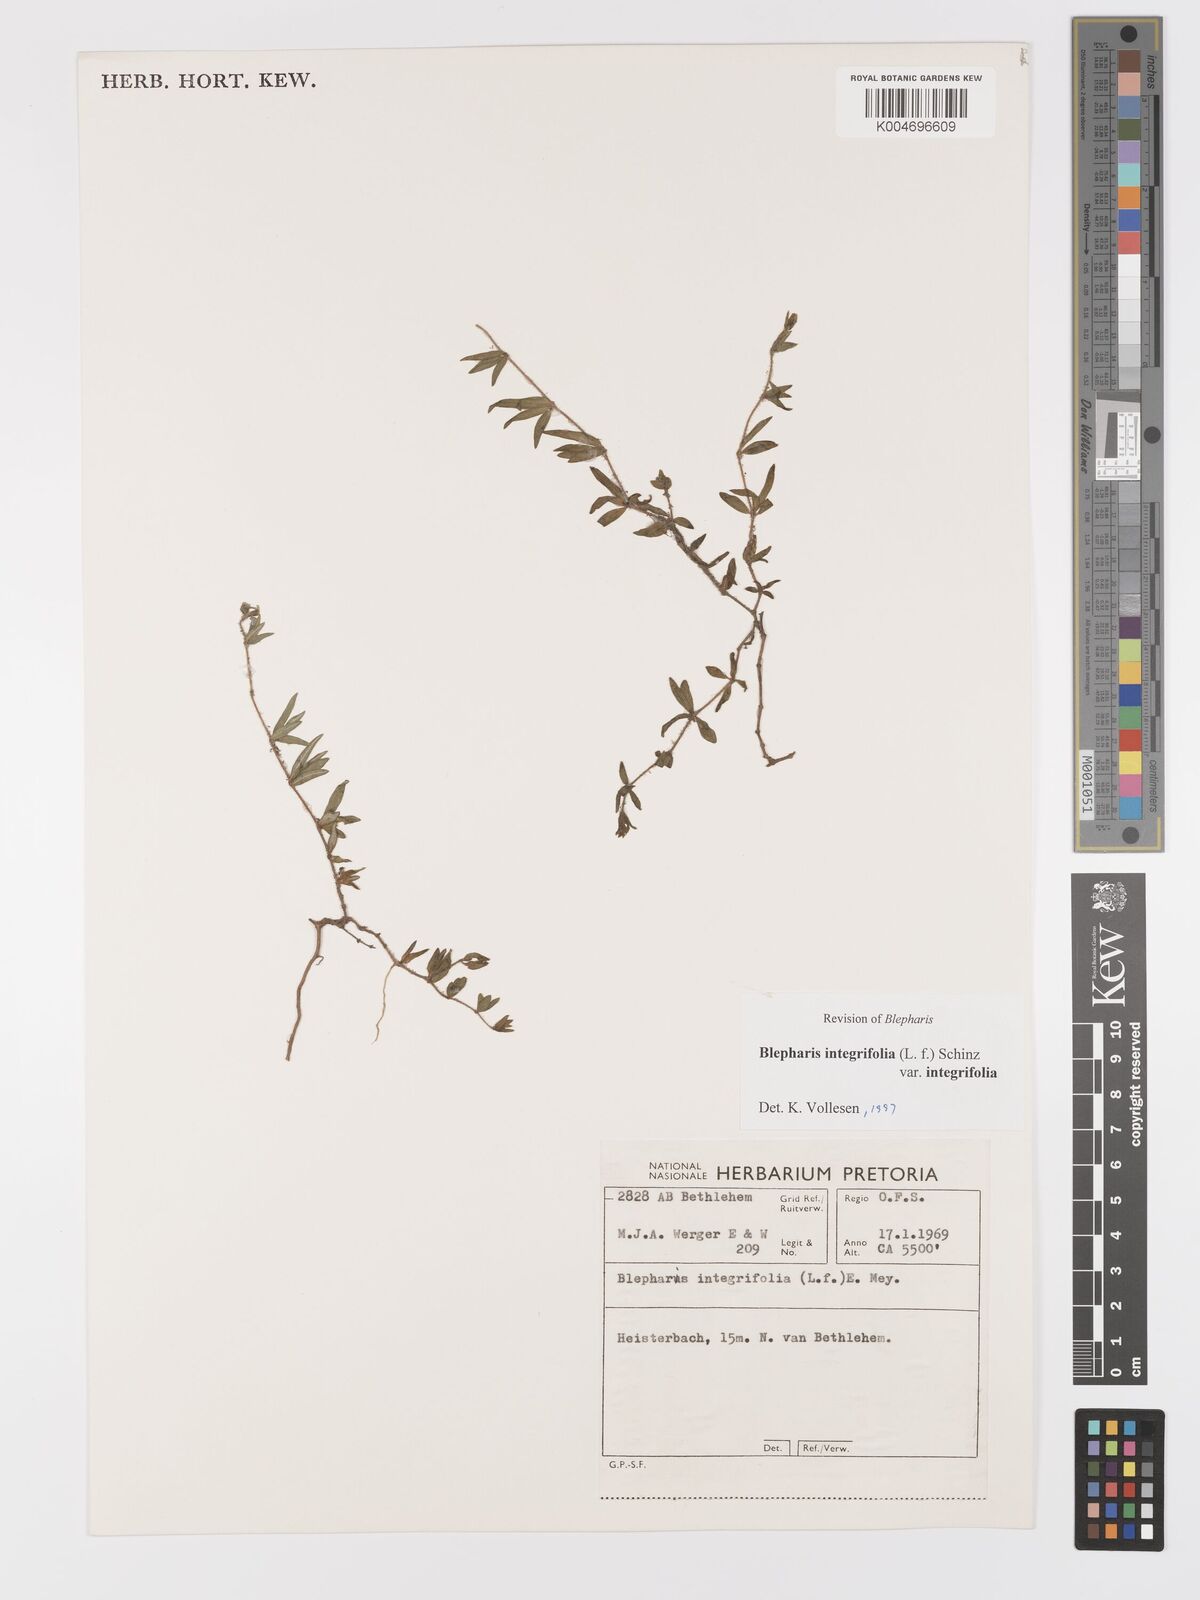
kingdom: Plantae
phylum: Tracheophyta
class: Magnoliopsida
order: Lamiales
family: Acanthaceae
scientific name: Acanthaceae
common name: Acanthaceae
